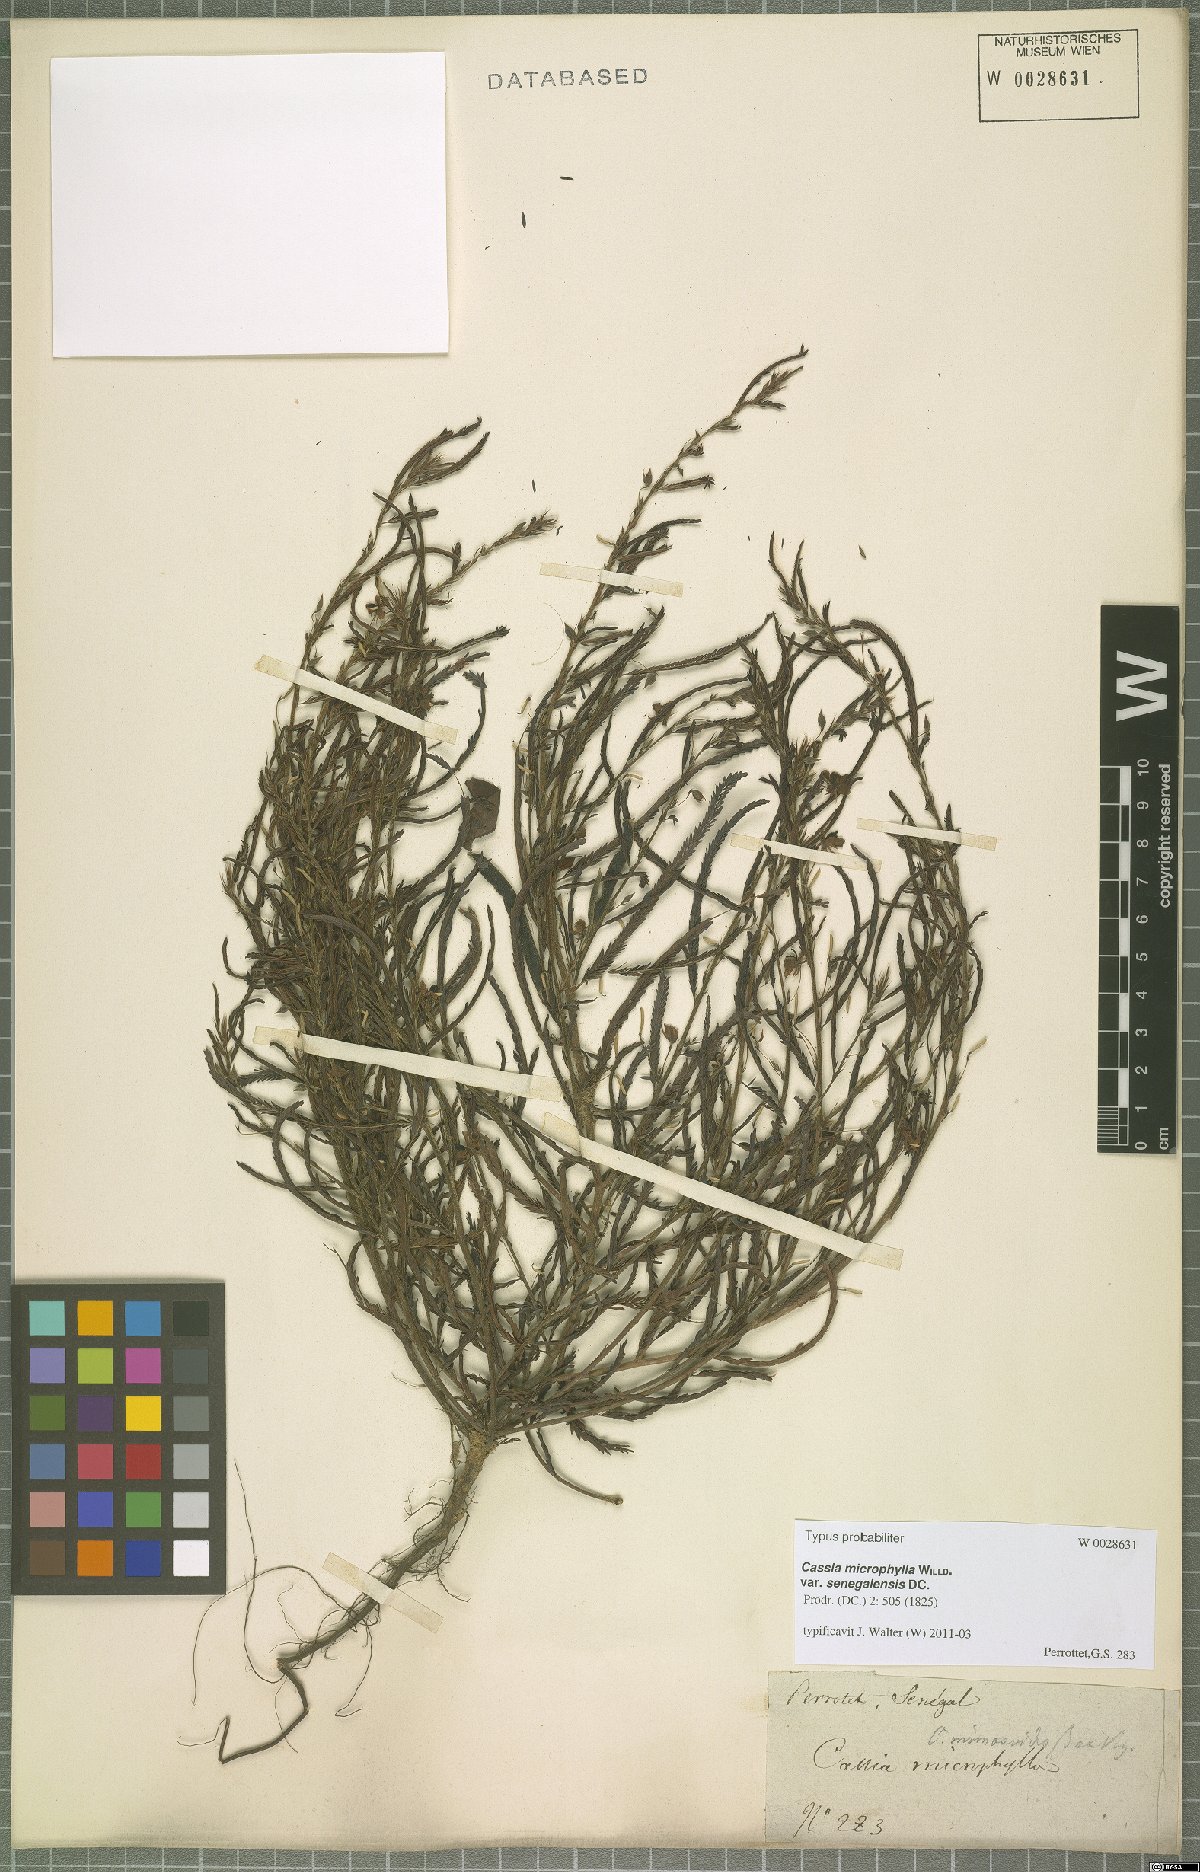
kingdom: Plantae
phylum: Tracheophyta
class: Magnoliopsida
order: Fabales
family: Fabaceae
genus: Chamaecrista
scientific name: Chamaecrista mimosoides
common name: Fish-bone cassia
